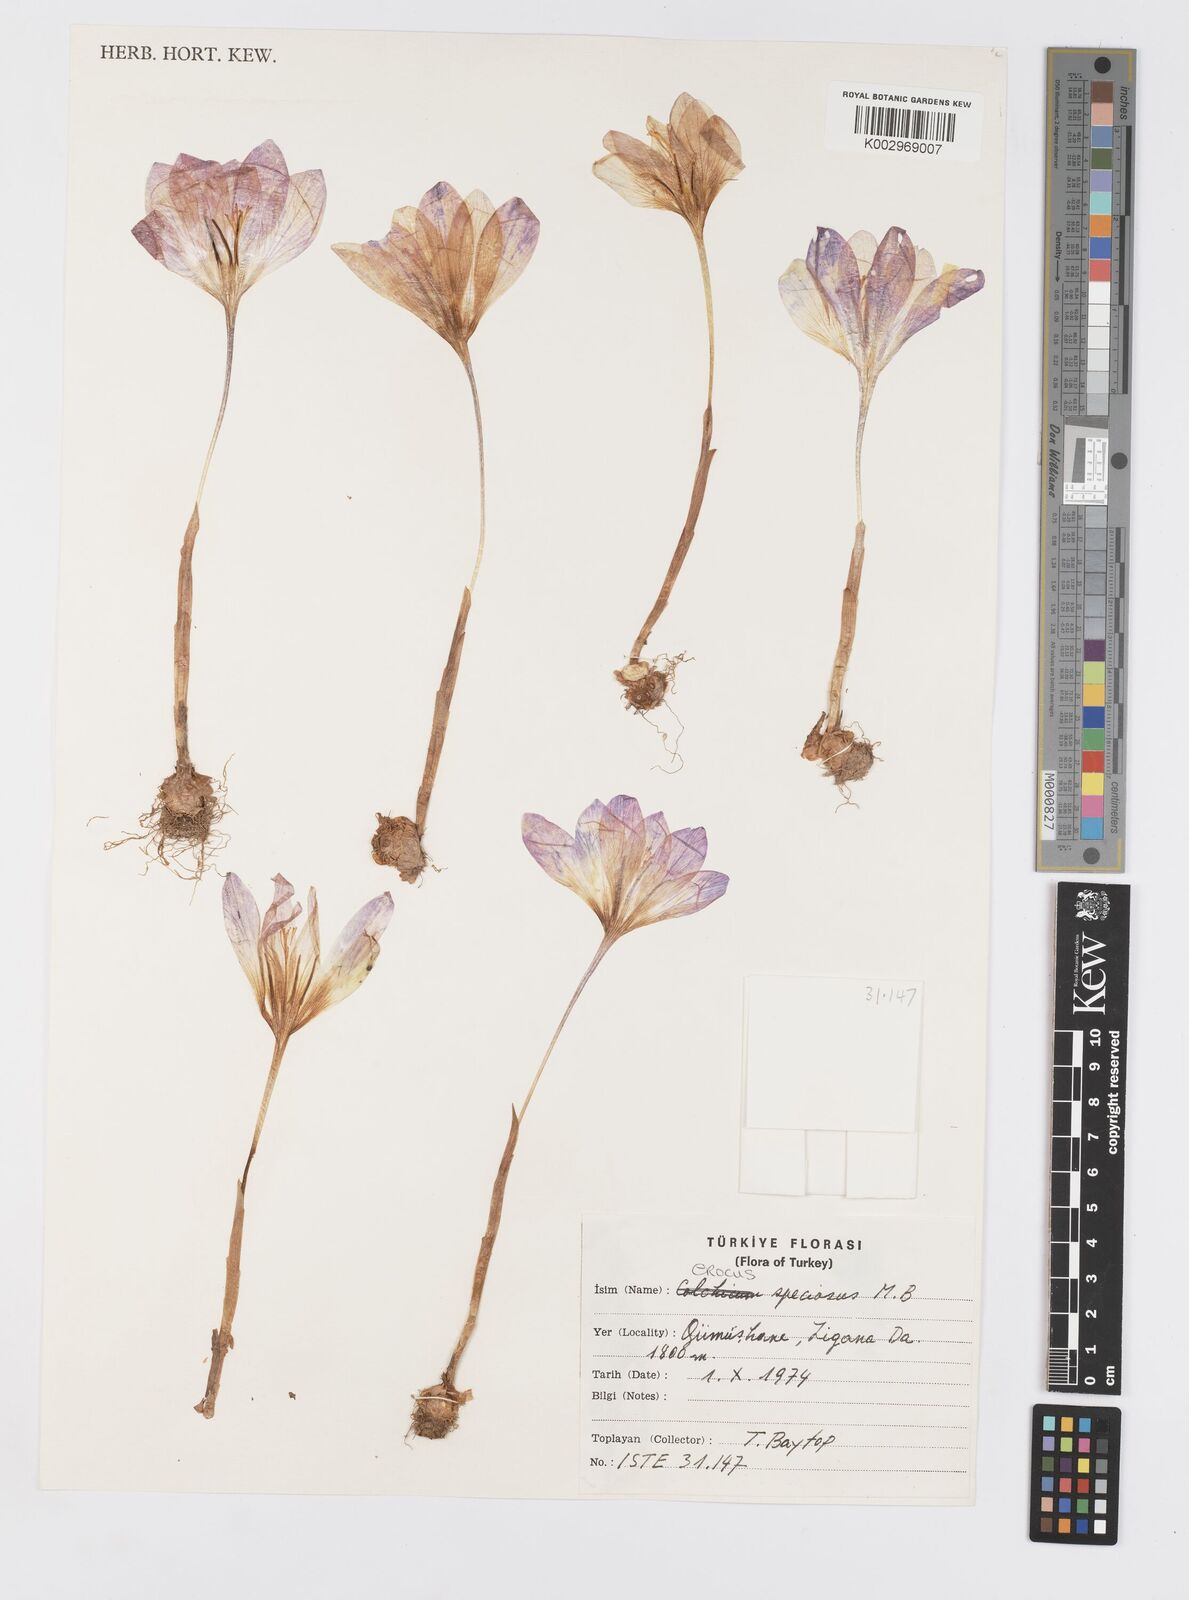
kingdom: Plantae
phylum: Tracheophyta
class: Liliopsida
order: Asparagales
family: Iridaceae
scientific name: Iridaceae
